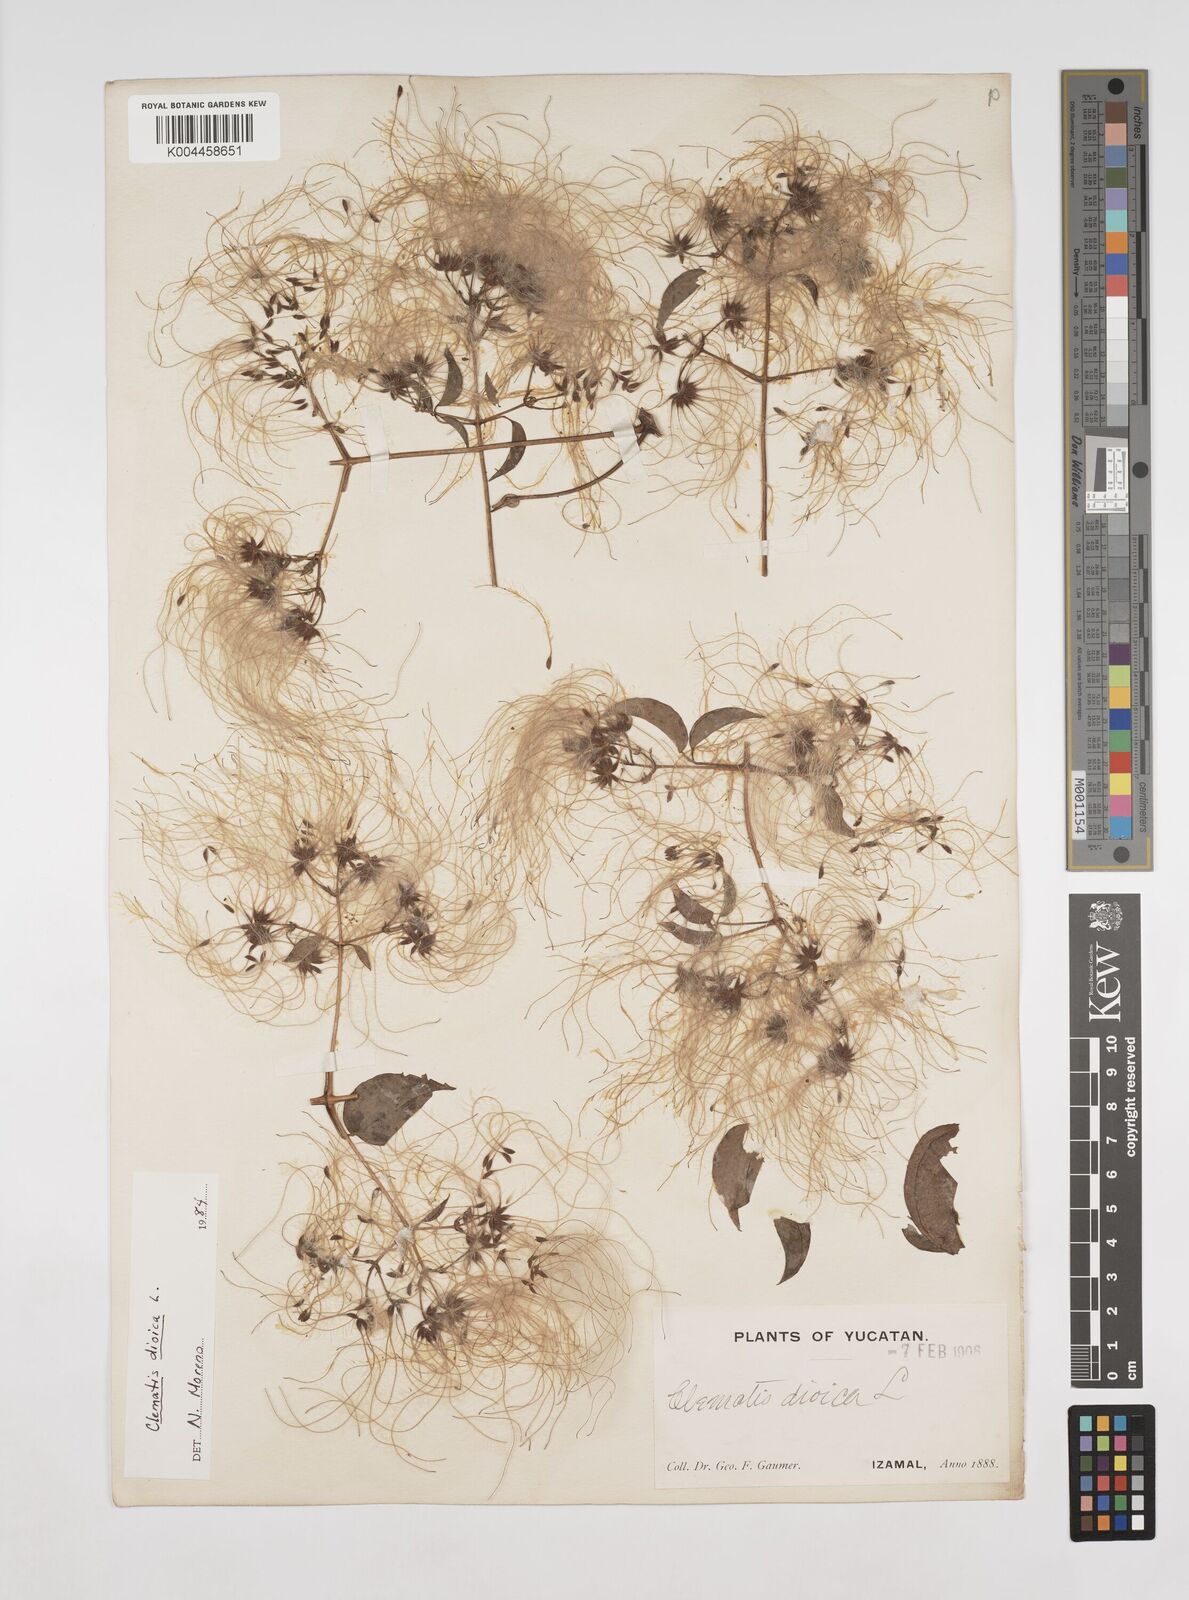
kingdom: Plantae
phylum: Tracheophyta
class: Magnoliopsida
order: Ranunculales
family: Ranunculaceae
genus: Clematis
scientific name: Clematis dioica
